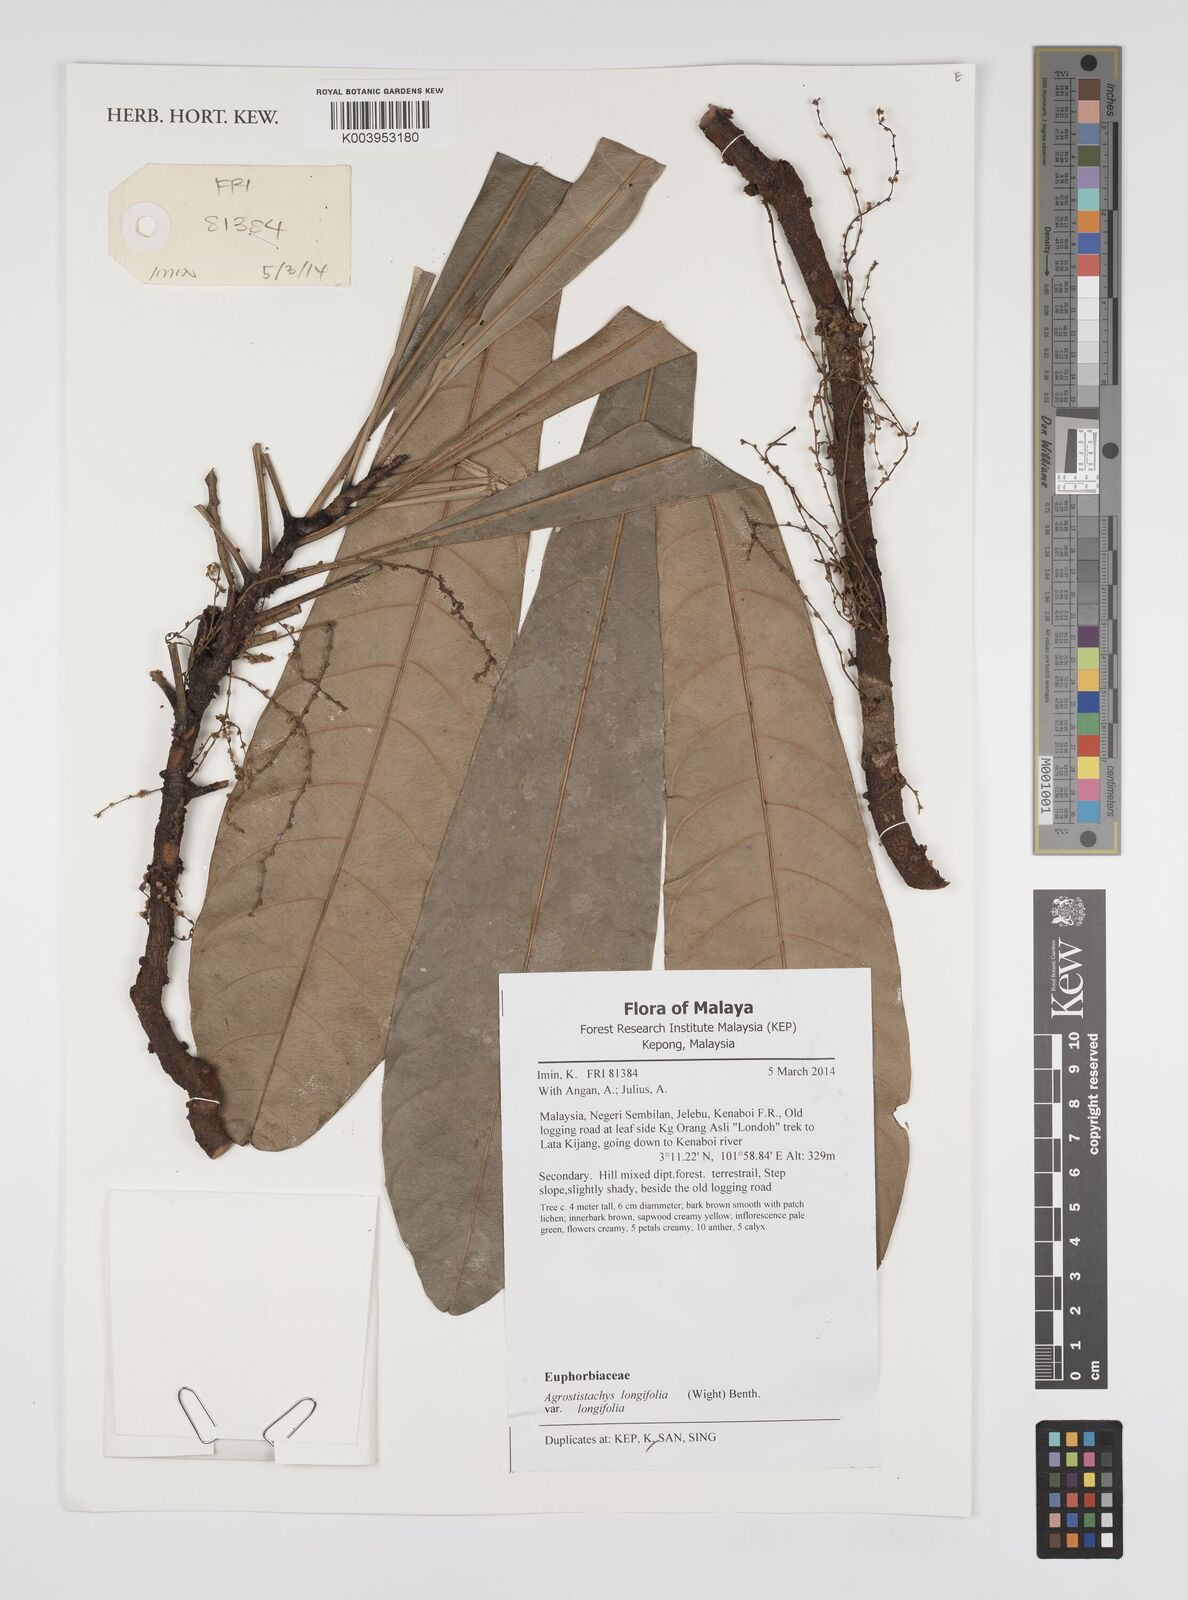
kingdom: Plantae
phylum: Tracheophyta
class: Magnoliopsida
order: Malpighiales
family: Euphorbiaceae
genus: Agrostistachys
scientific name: Agrostistachys borneensis
